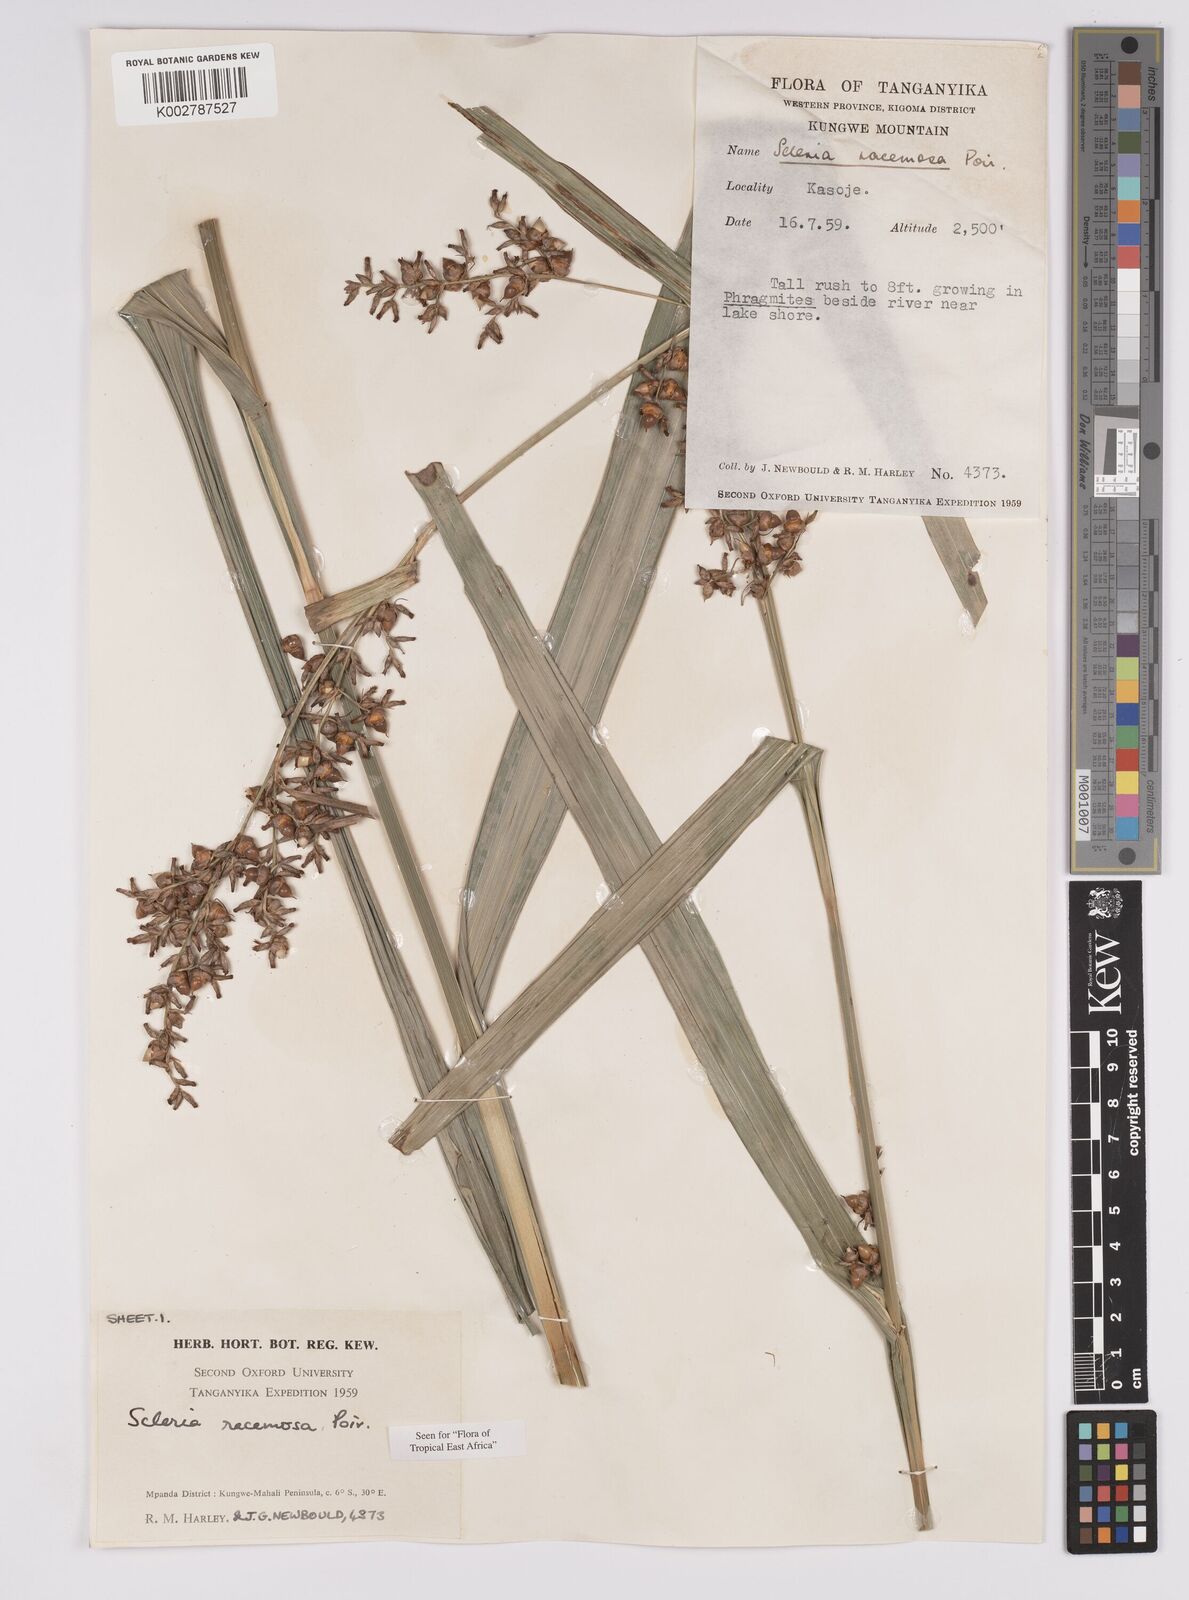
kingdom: Plantae
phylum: Tracheophyta
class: Liliopsida
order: Poales
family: Cyperaceae
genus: Scleria
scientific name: Scleria racemosa
